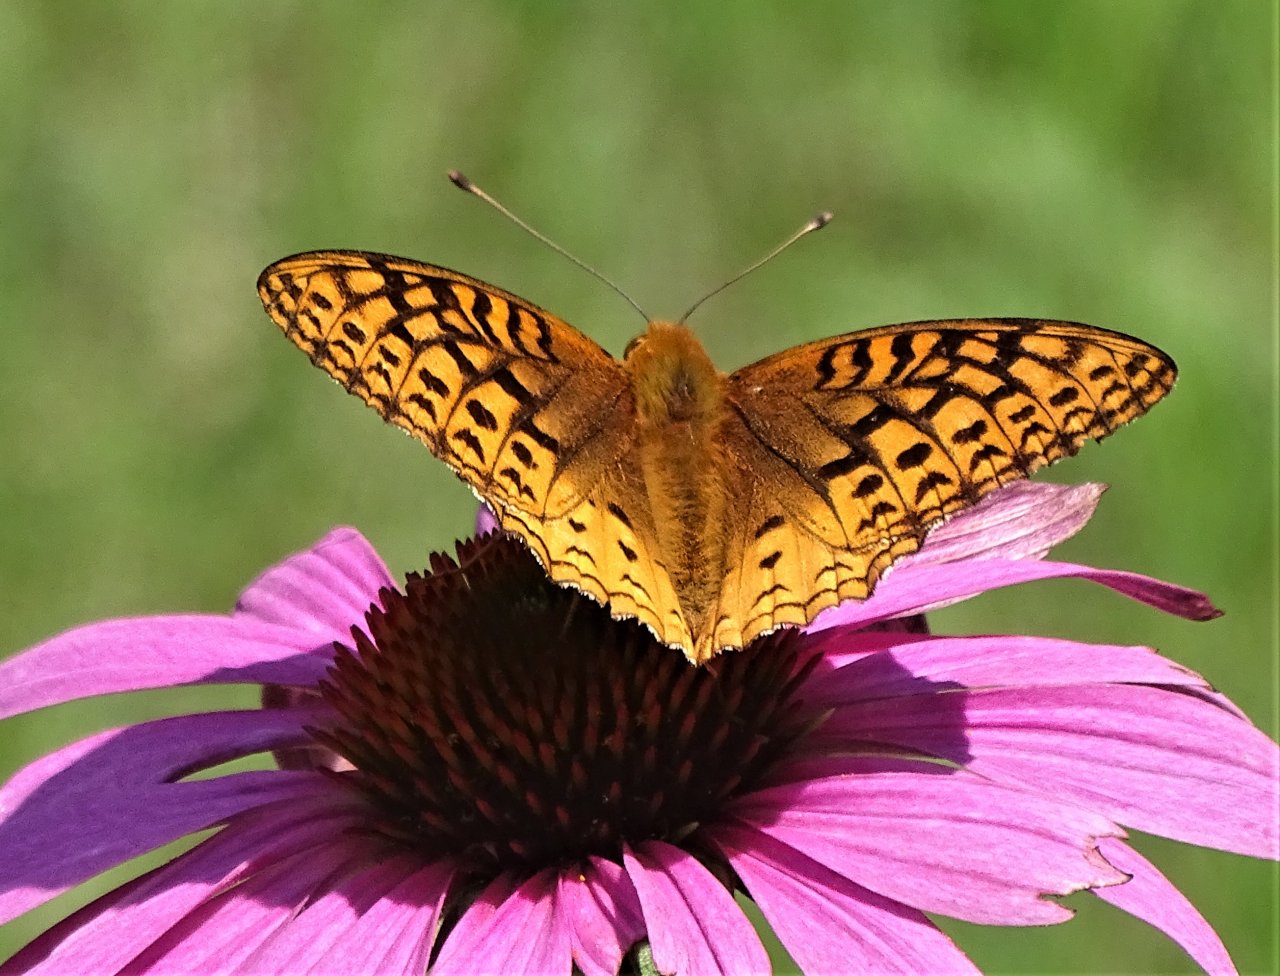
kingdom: Animalia
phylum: Arthropoda
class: Insecta
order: Lepidoptera
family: Nymphalidae
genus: Speyeria
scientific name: Speyeria cybele
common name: Great Spangled Fritillary
